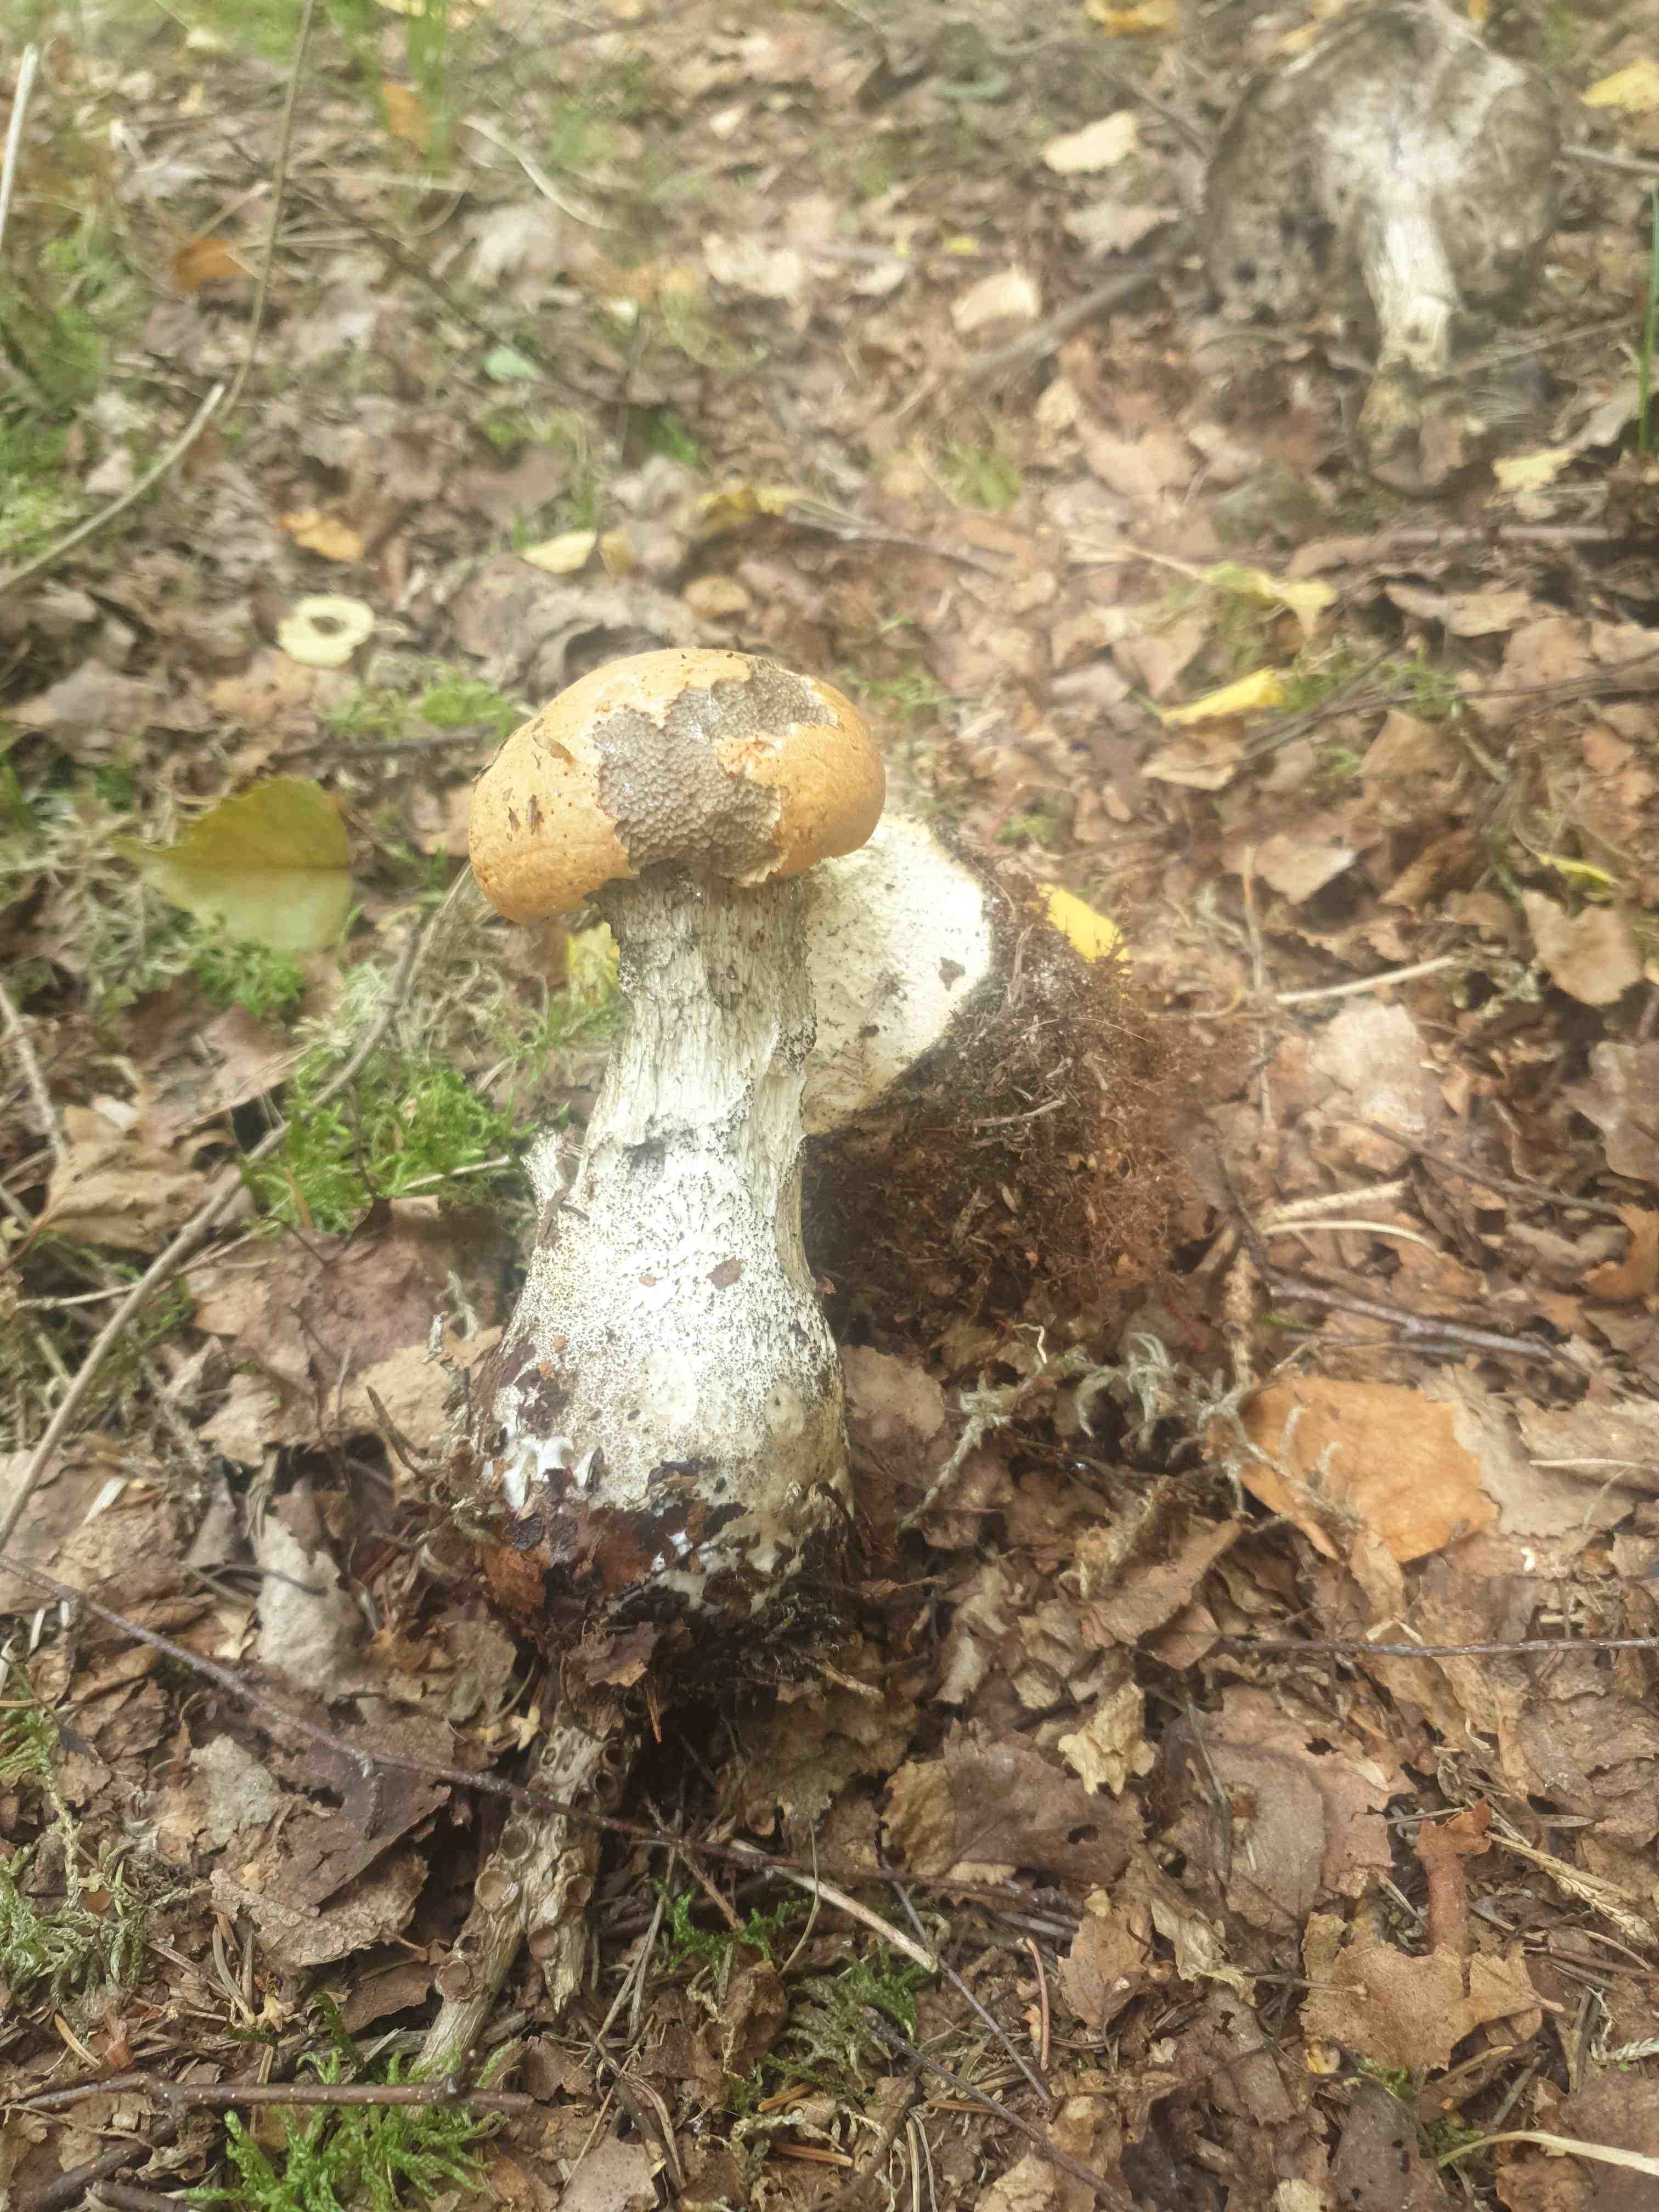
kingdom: Fungi
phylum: Basidiomycota
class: Agaricomycetes
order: Boletales
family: Boletaceae
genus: Leccinum
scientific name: Leccinum versipelle
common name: orange skælrørhat
